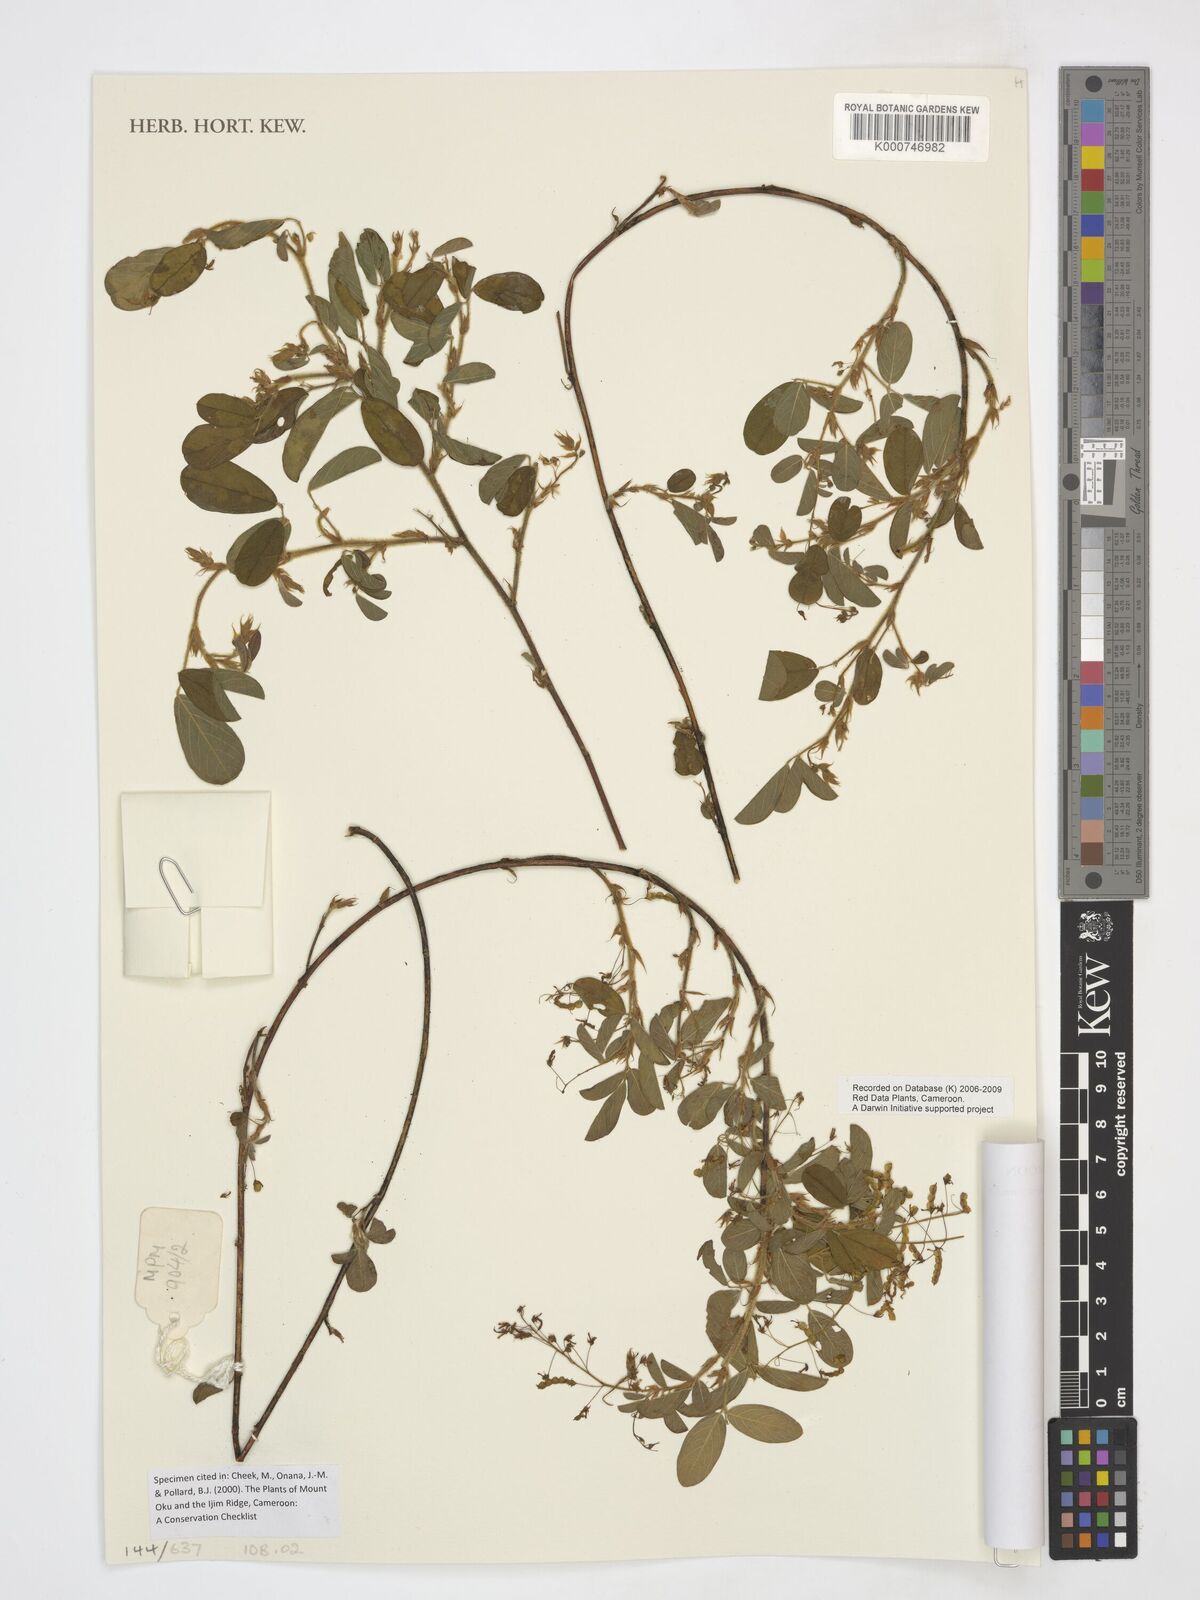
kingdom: Plantae
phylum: Tracheophyta
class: Magnoliopsida
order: Fabales
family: Fabaceae
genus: Grona
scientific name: Grona hirta
